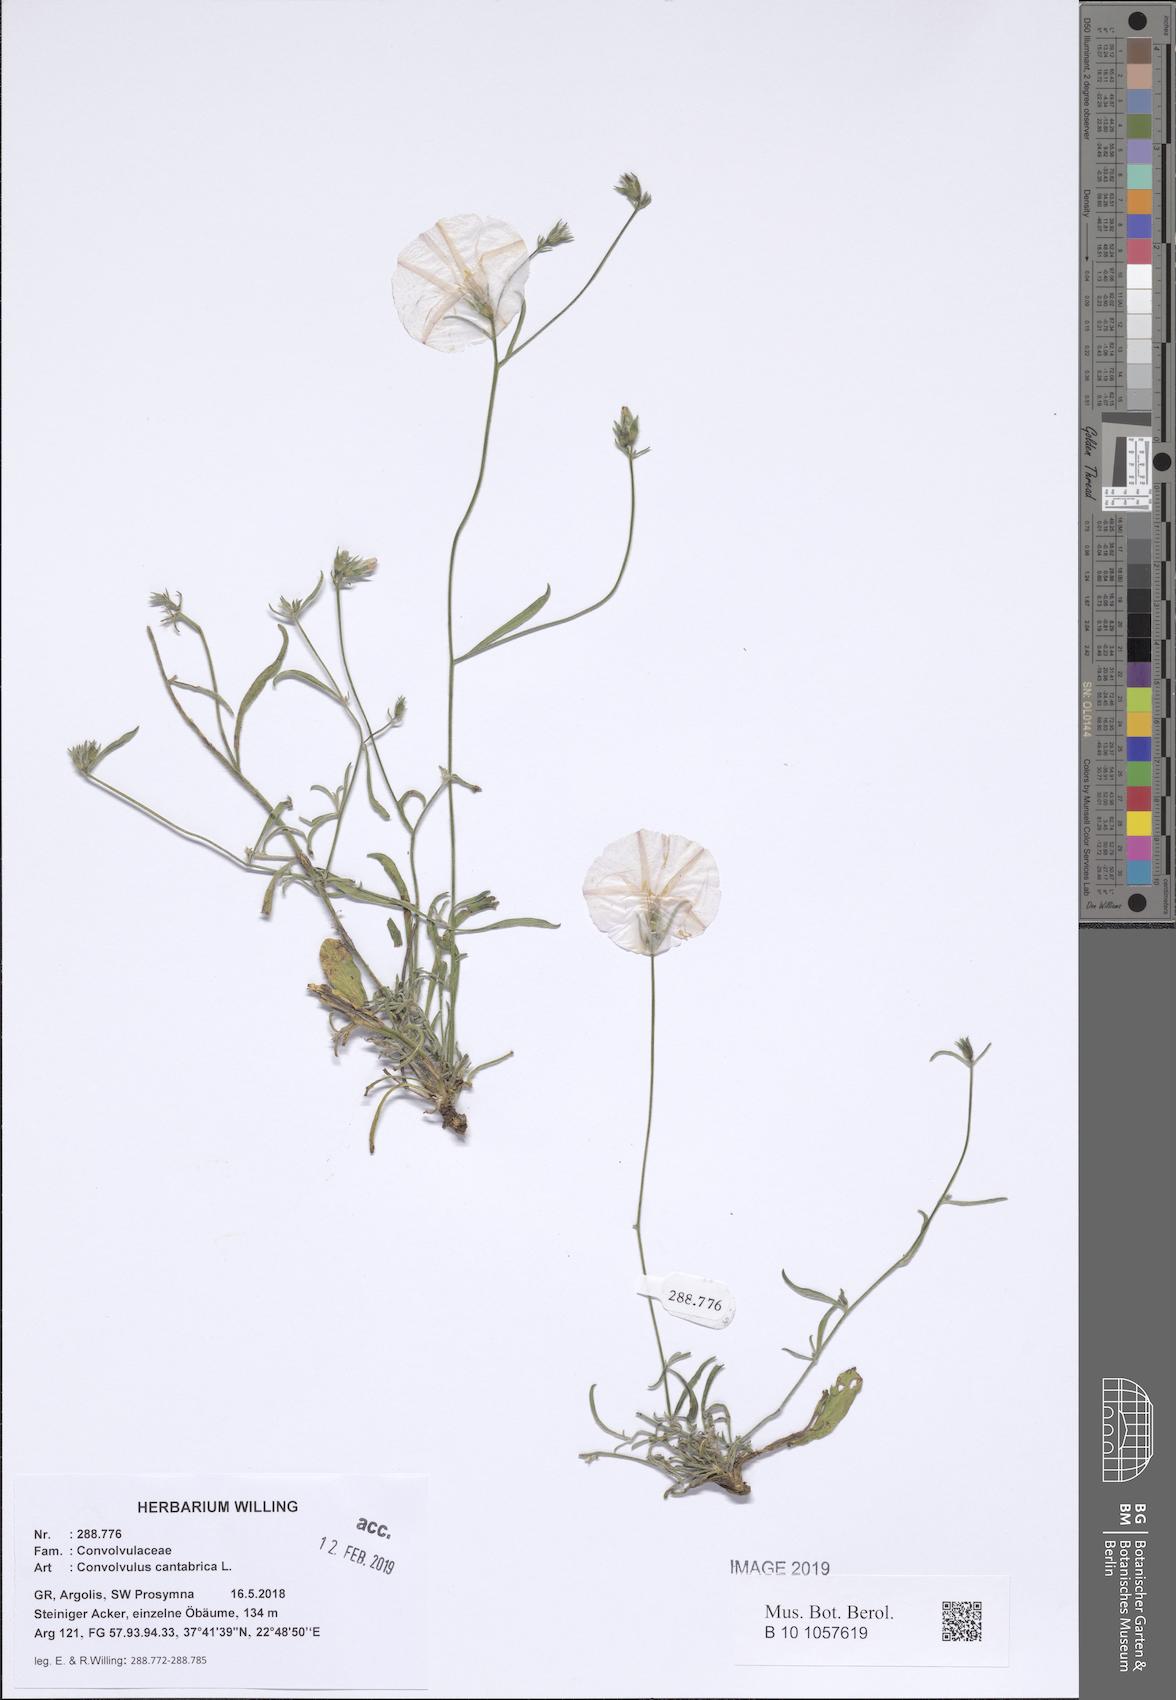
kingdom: Plantae
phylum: Tracheophyta
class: Magnoliopsida
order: Solanales
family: Convolvulaceae
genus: Convolvulus
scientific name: Convolvulus cantabrica
